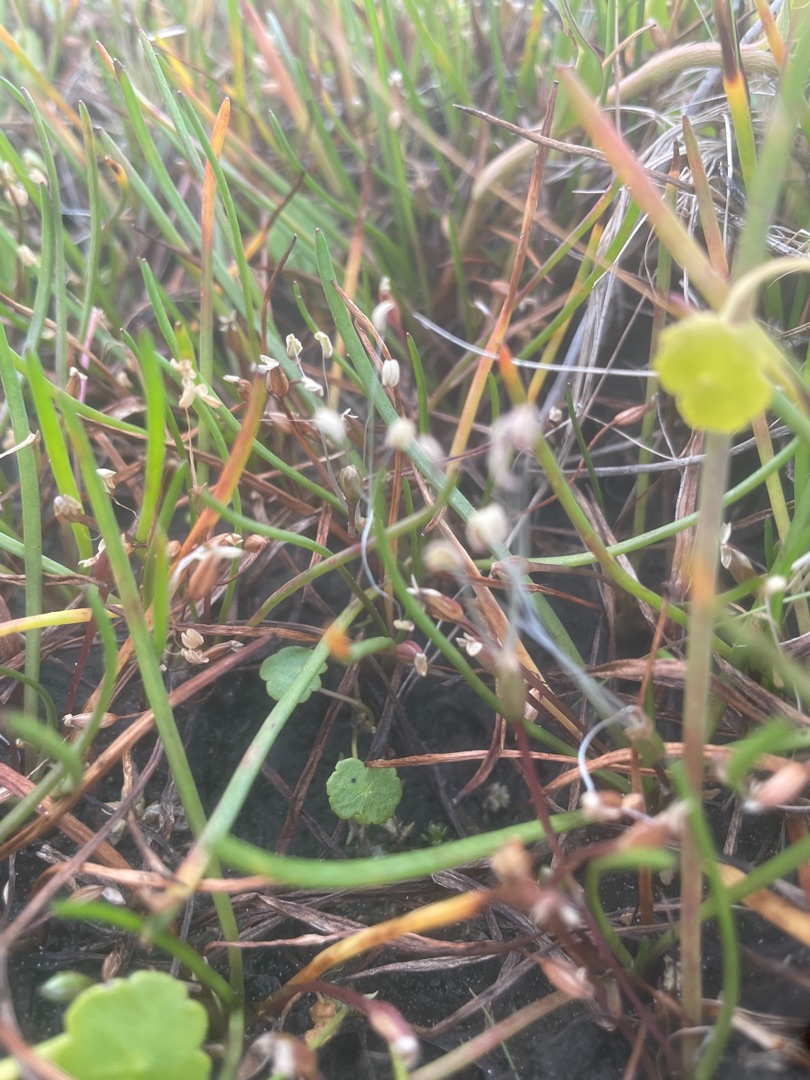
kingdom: Plantae
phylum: Tracheophyta
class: Magnoliopsida
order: Lamiales
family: Plantaginaceae
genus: Littorella
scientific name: Littorella uniflora
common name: Strandbo
